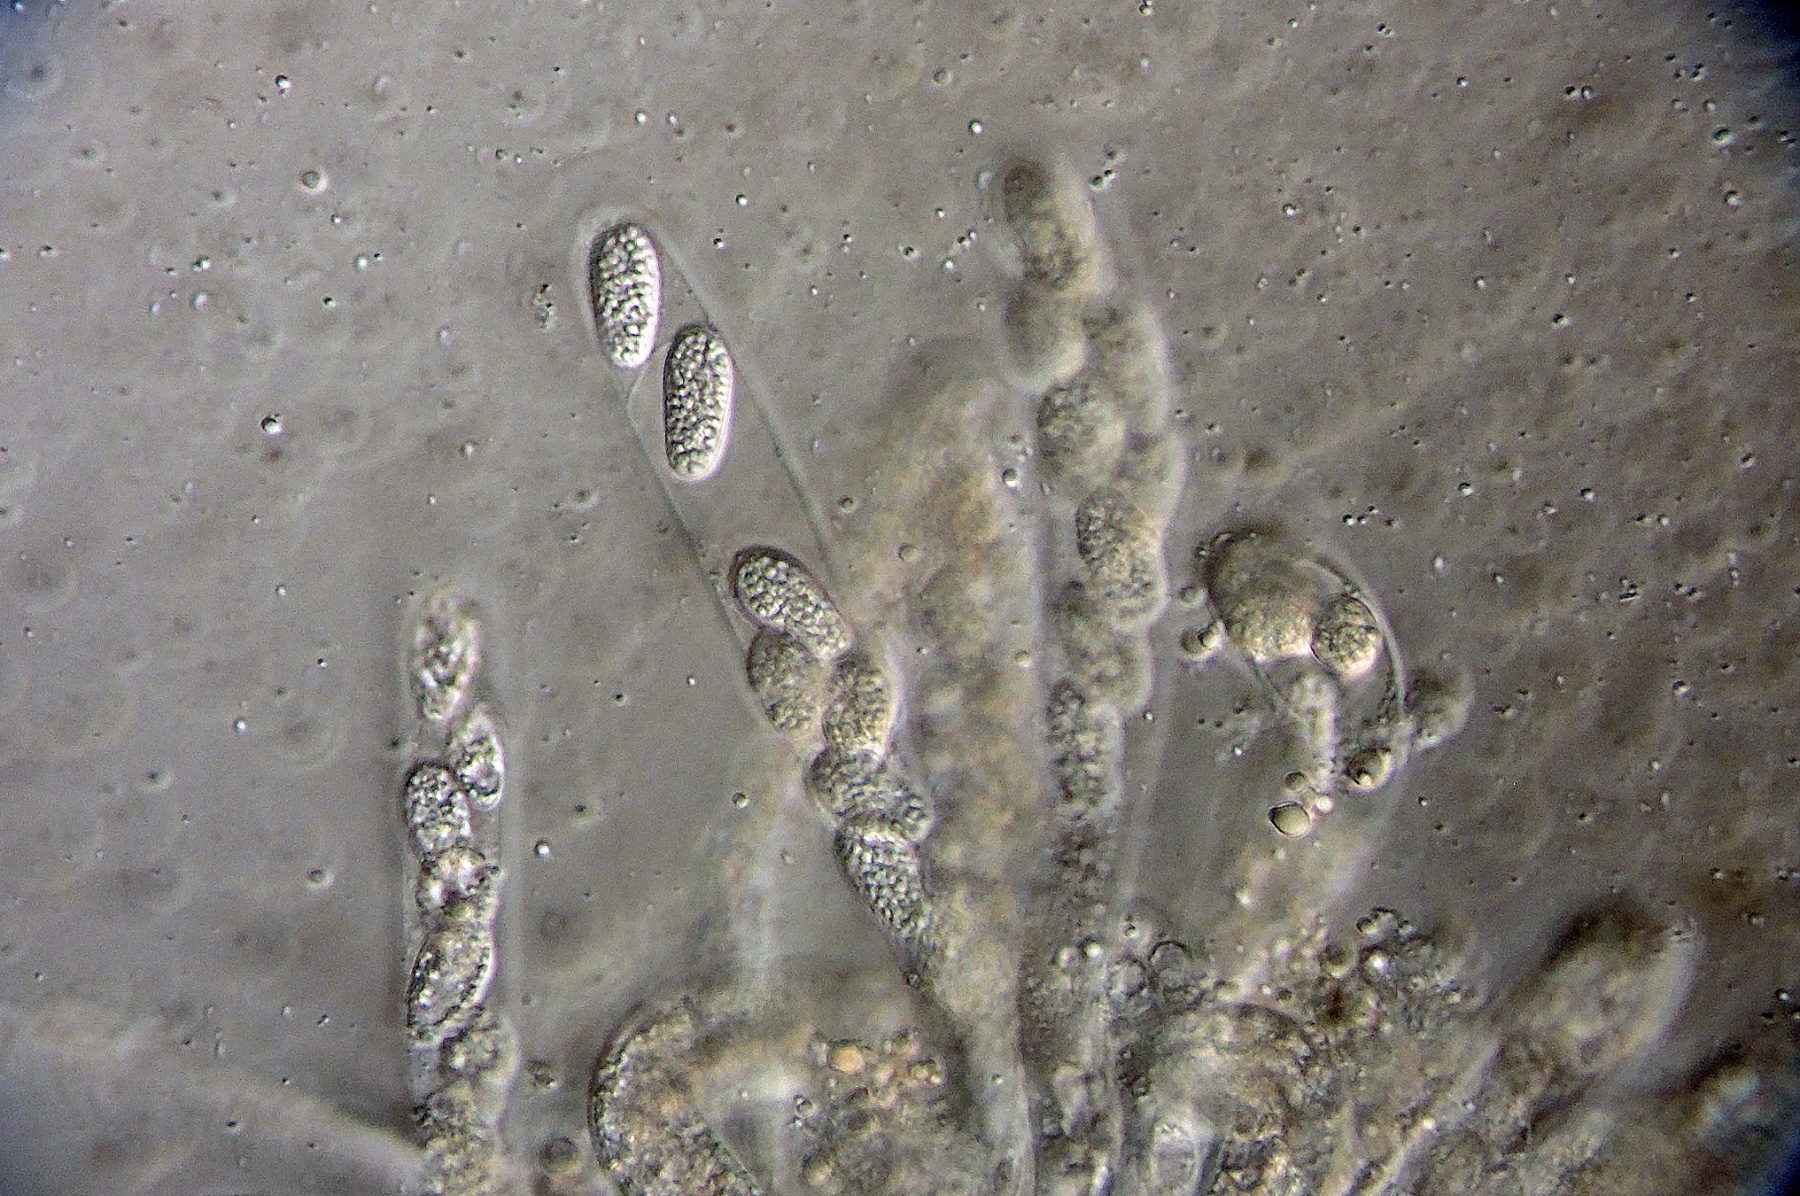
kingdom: Fungi
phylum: Ascomycota
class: Dothideomycetes
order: Botryosphaeriales
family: Botryosphaeriaceae
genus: Botryosphaeria
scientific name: Botryosphaeria hyperborea
